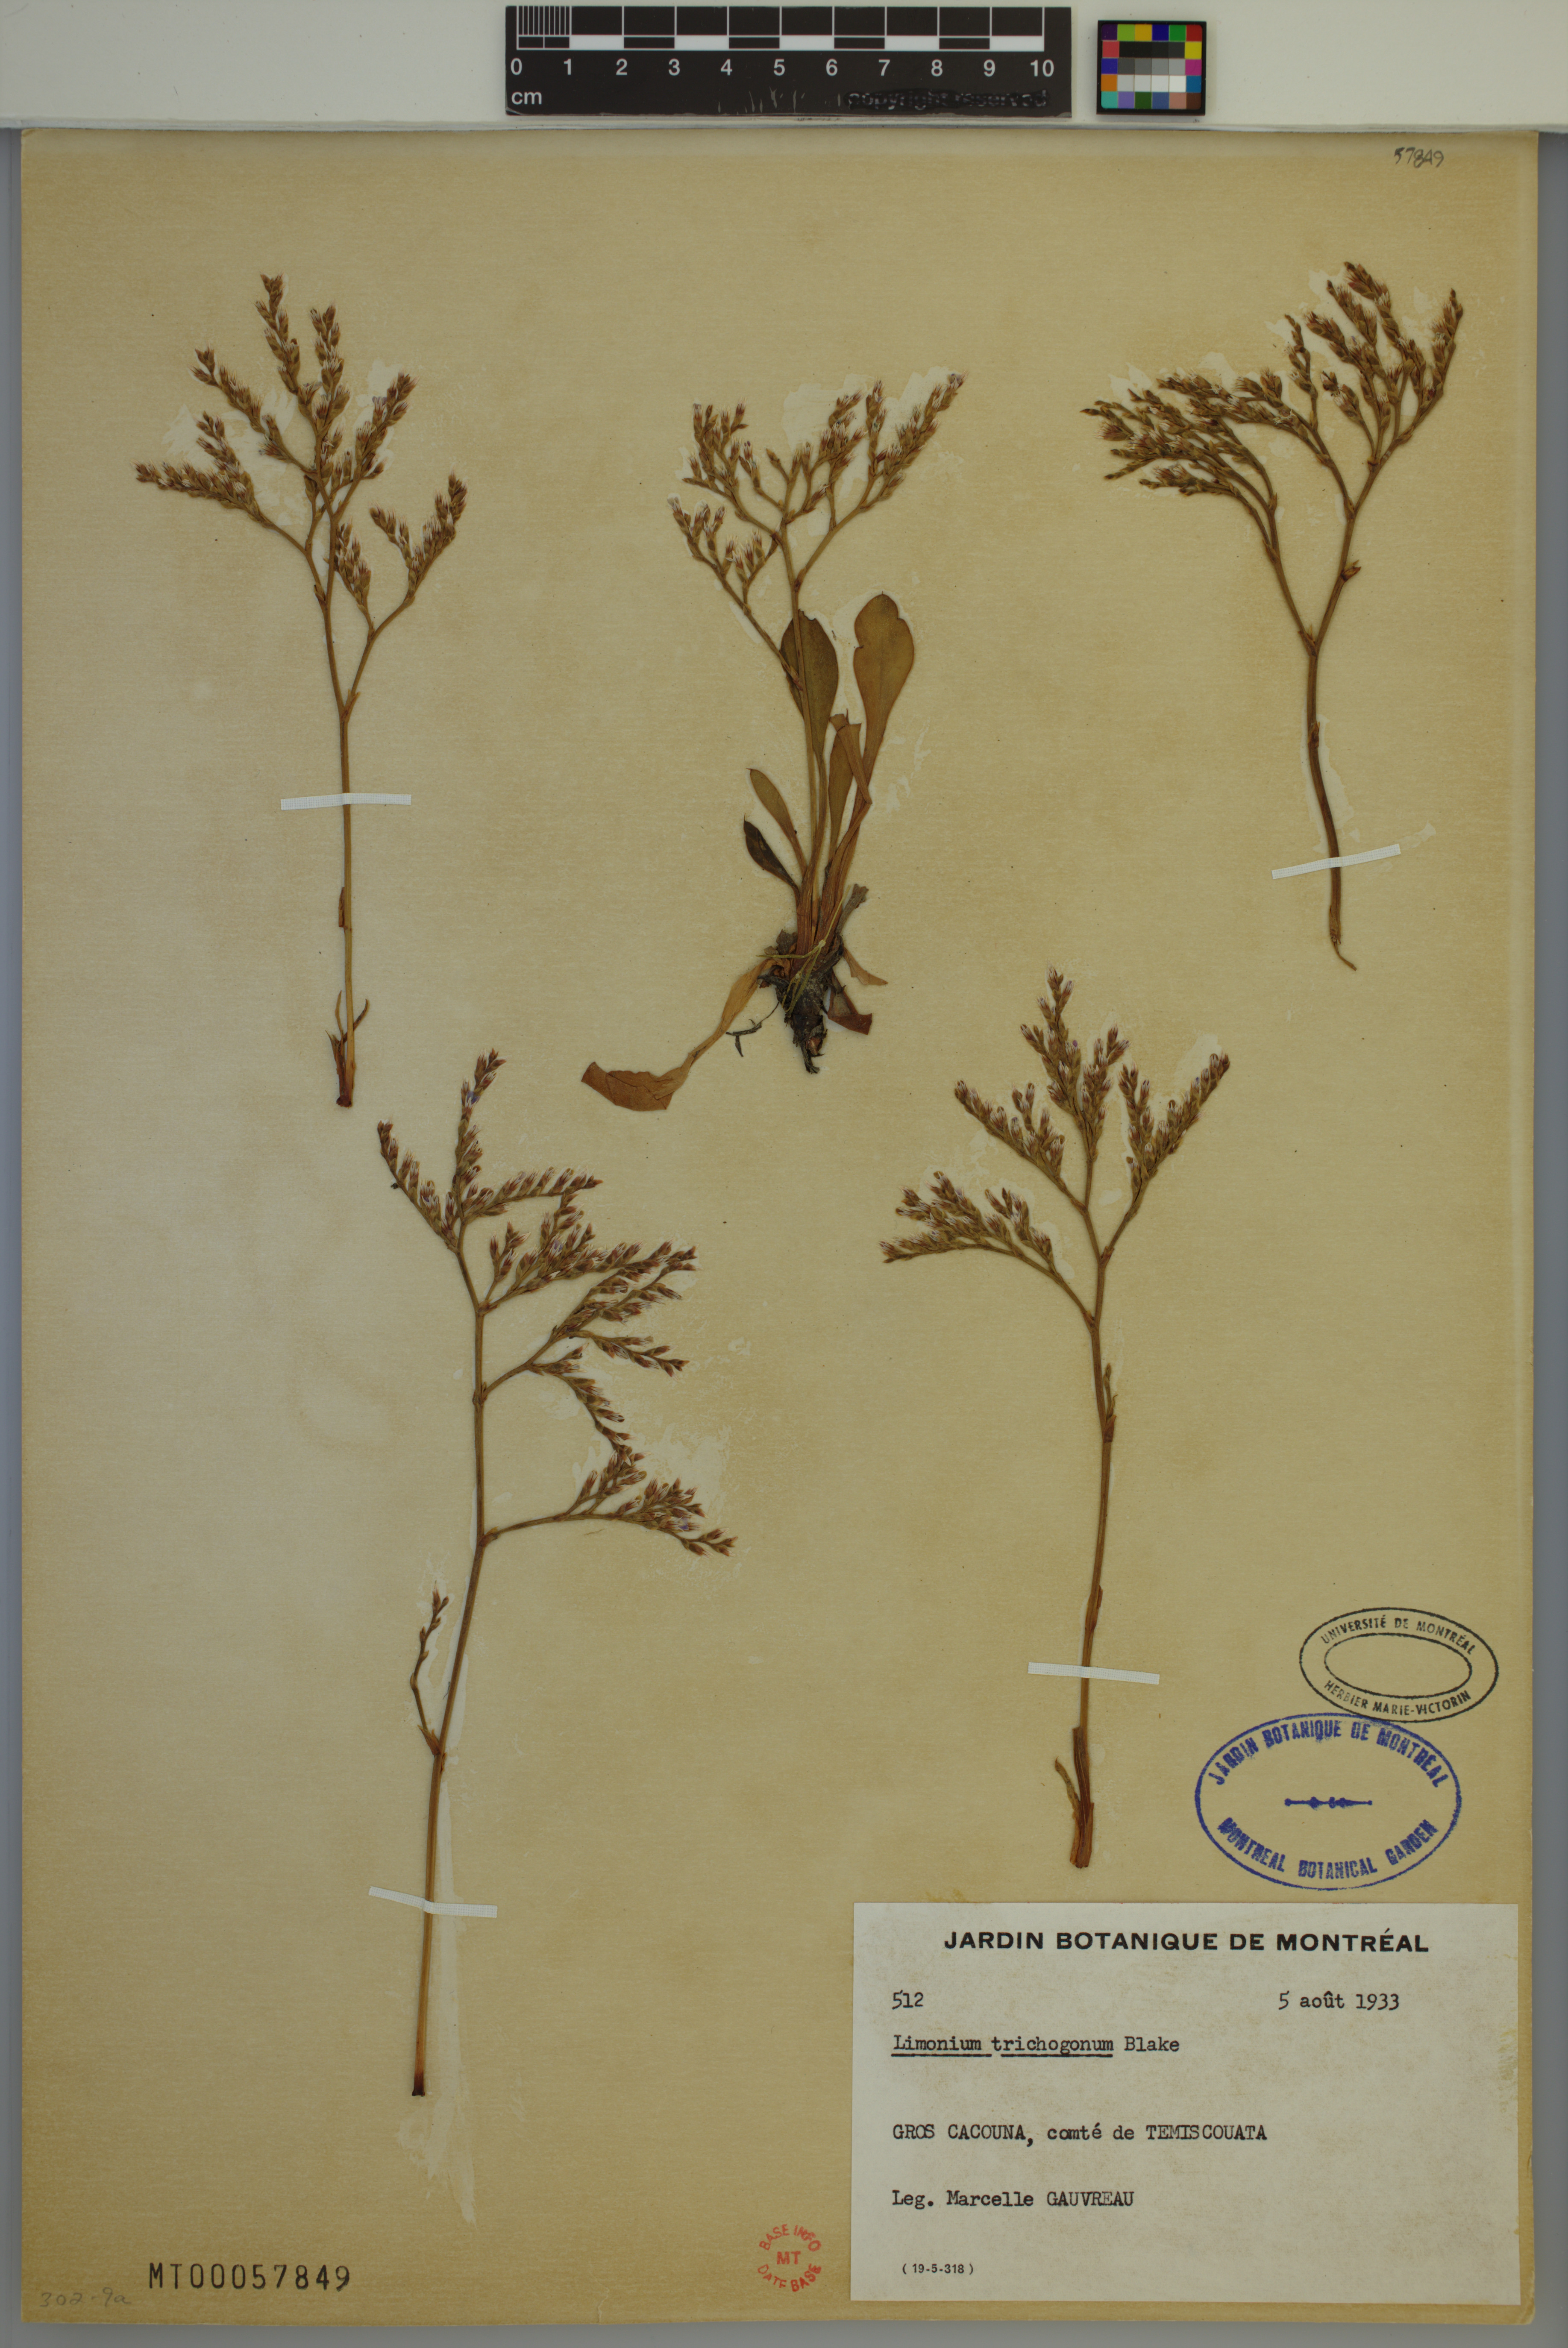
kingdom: Plantae
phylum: Tracheophyta
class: Magnoliopsida
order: Caryophyllales
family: Plumbaginaceae
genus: Limonium
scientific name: Limonium carolinianum
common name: Carolina sea lavender
